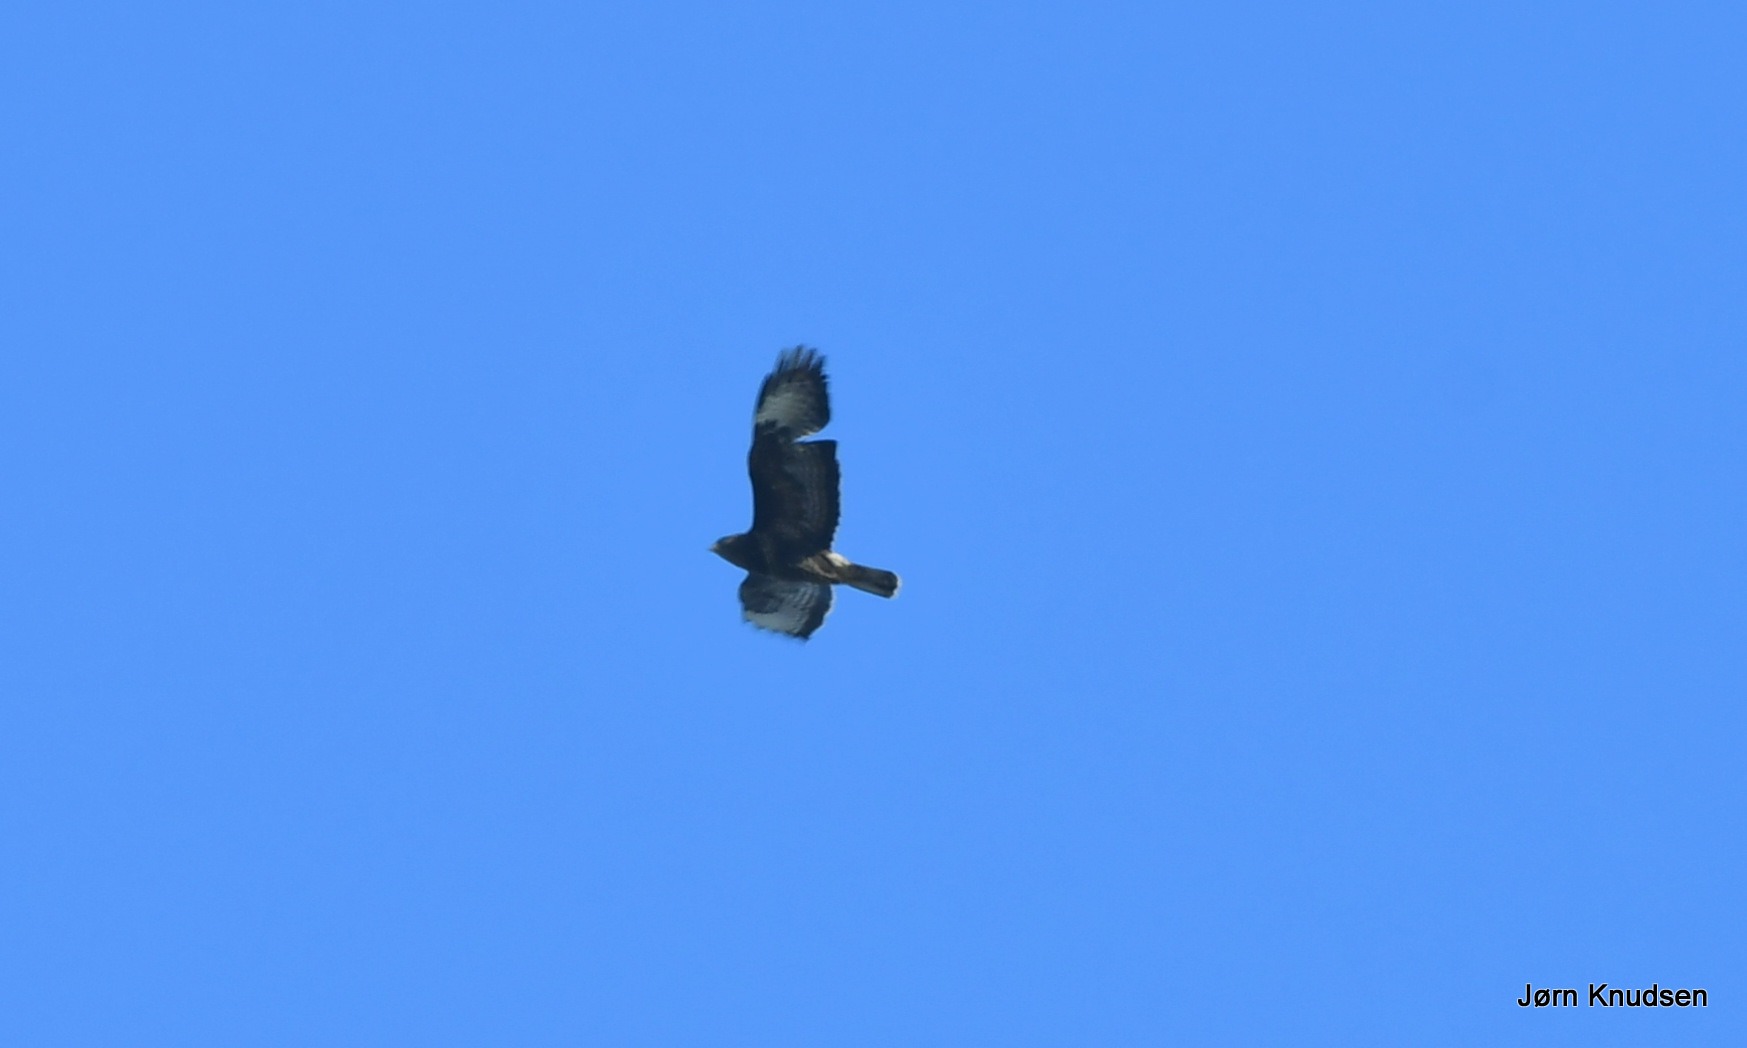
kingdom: Animalia
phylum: Chordata
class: Aves
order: Accipitriformes
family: Accipitridae
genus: Buteo
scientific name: Buteo buteo
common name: Musvåge
